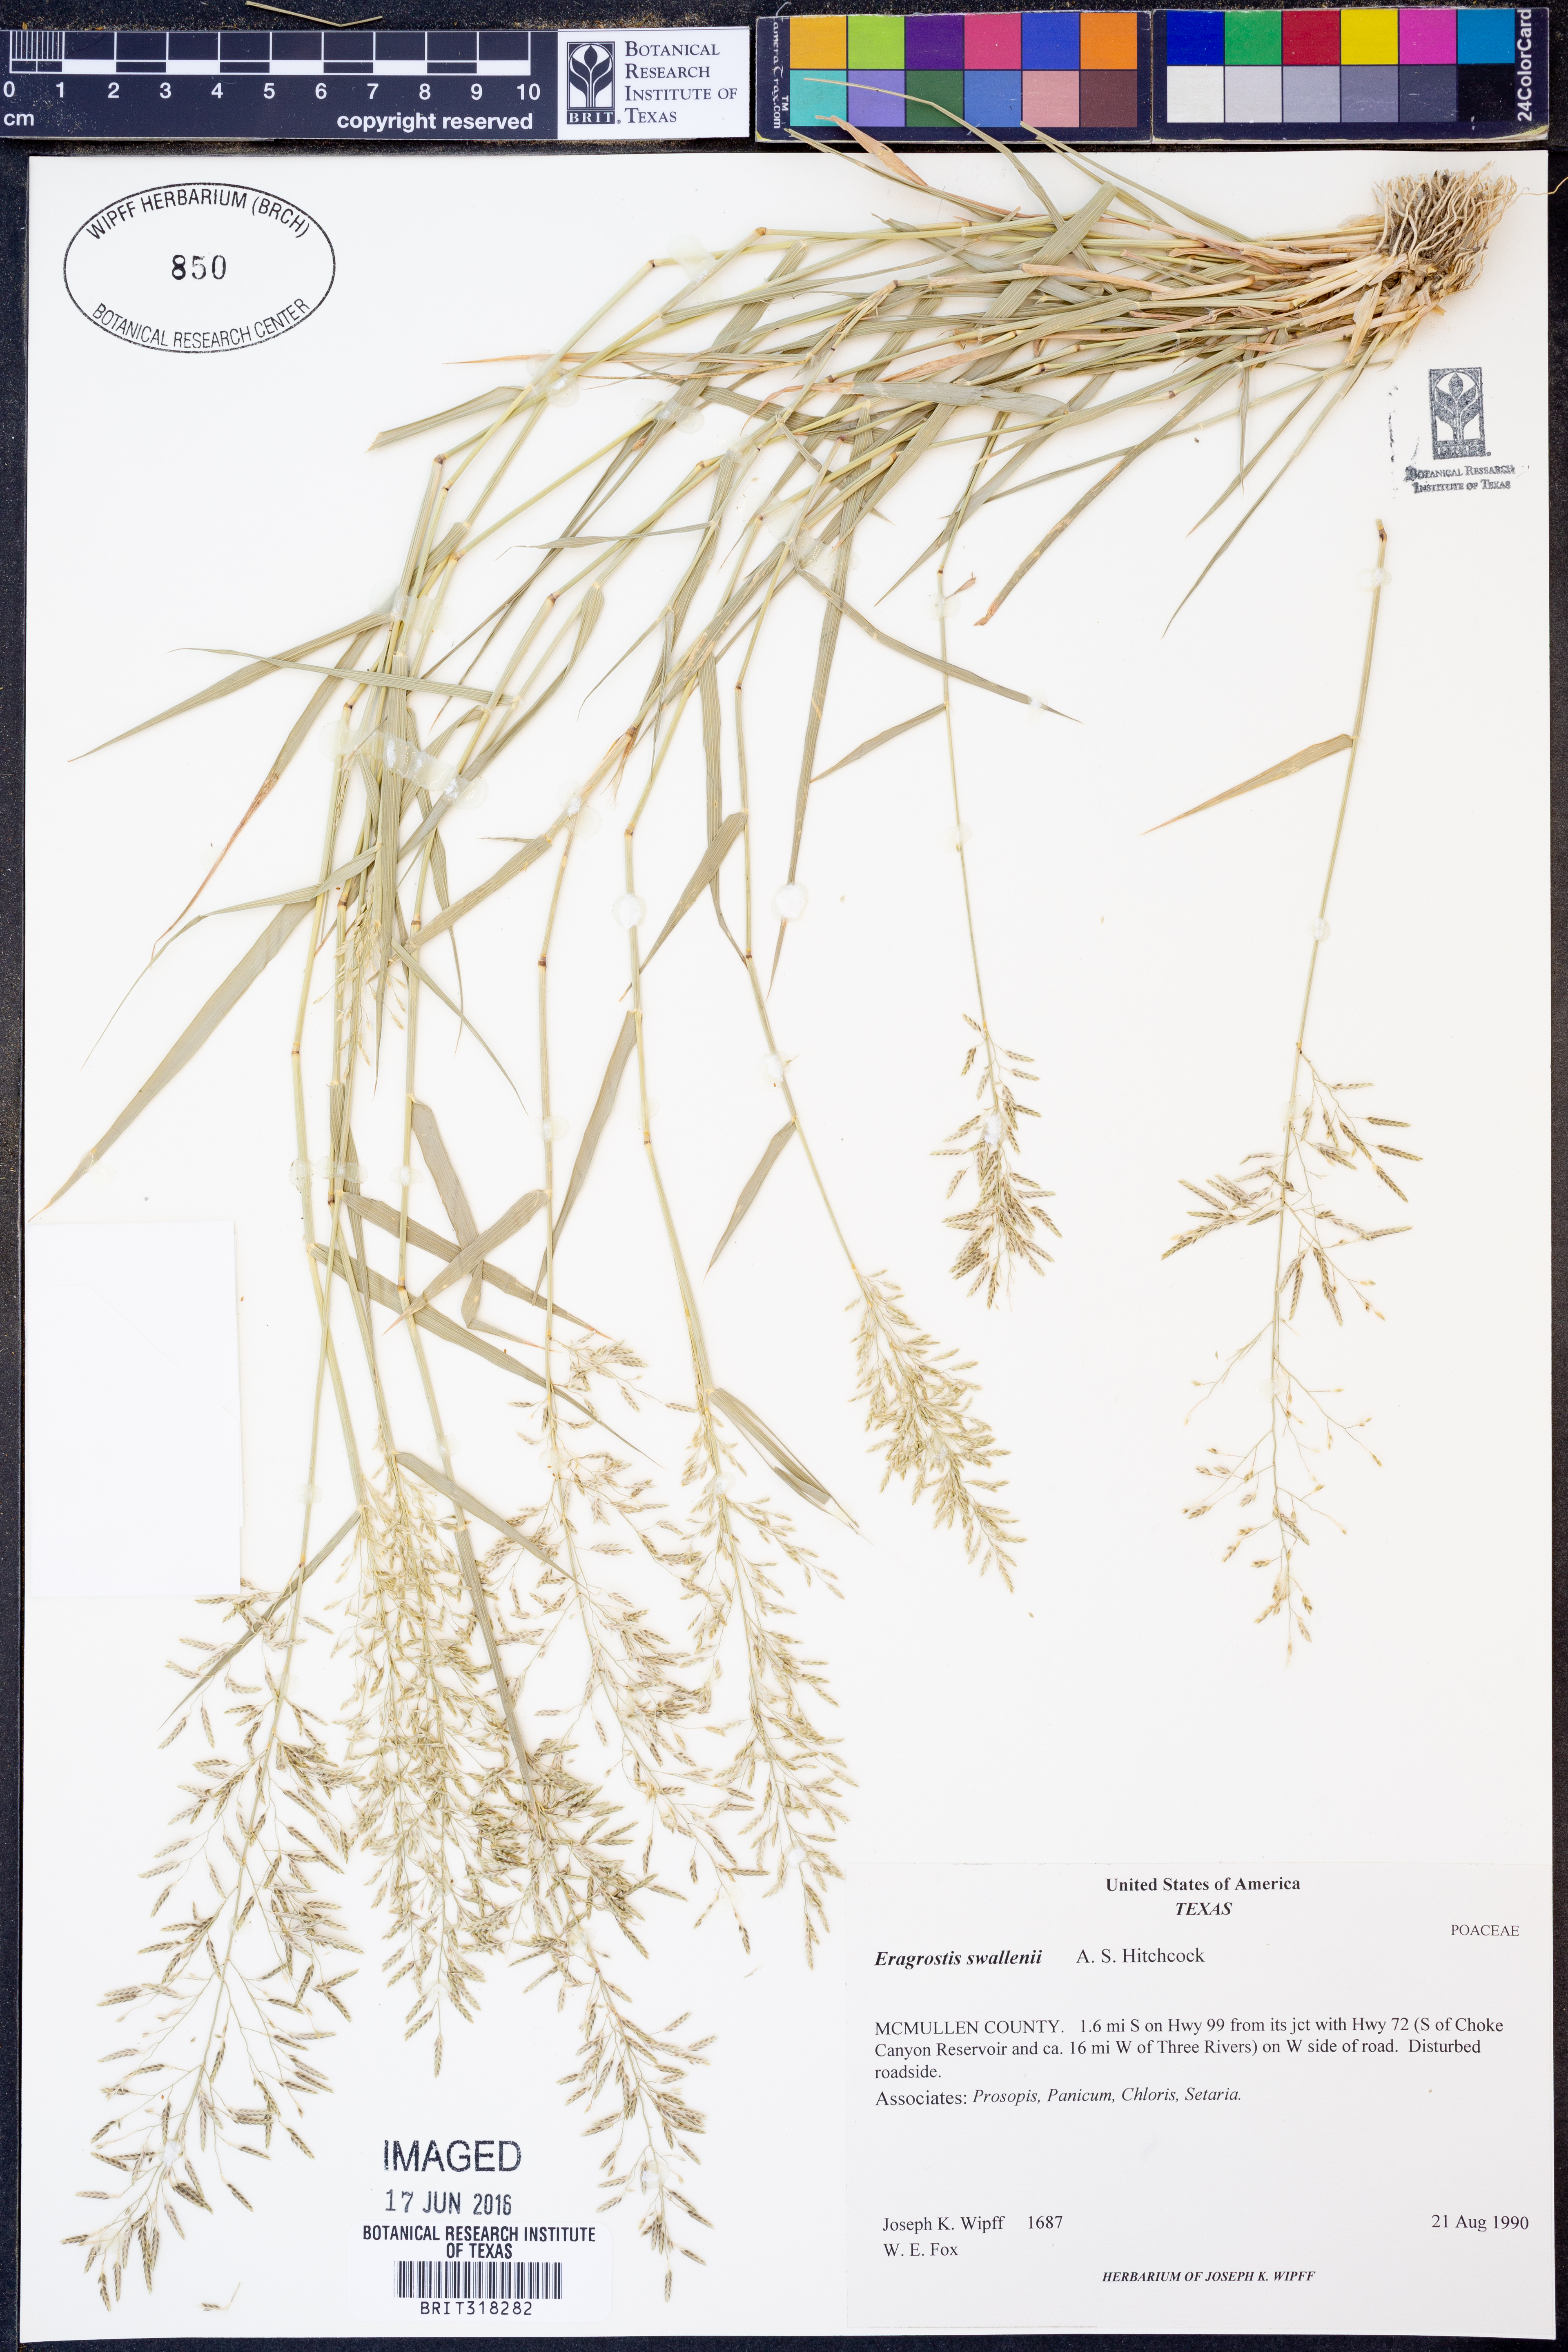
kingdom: Plantae
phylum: Tracheophyta
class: Liliopsida
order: Poales
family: Poaceae
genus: Eragrostis
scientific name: Eragrostis swallenii
